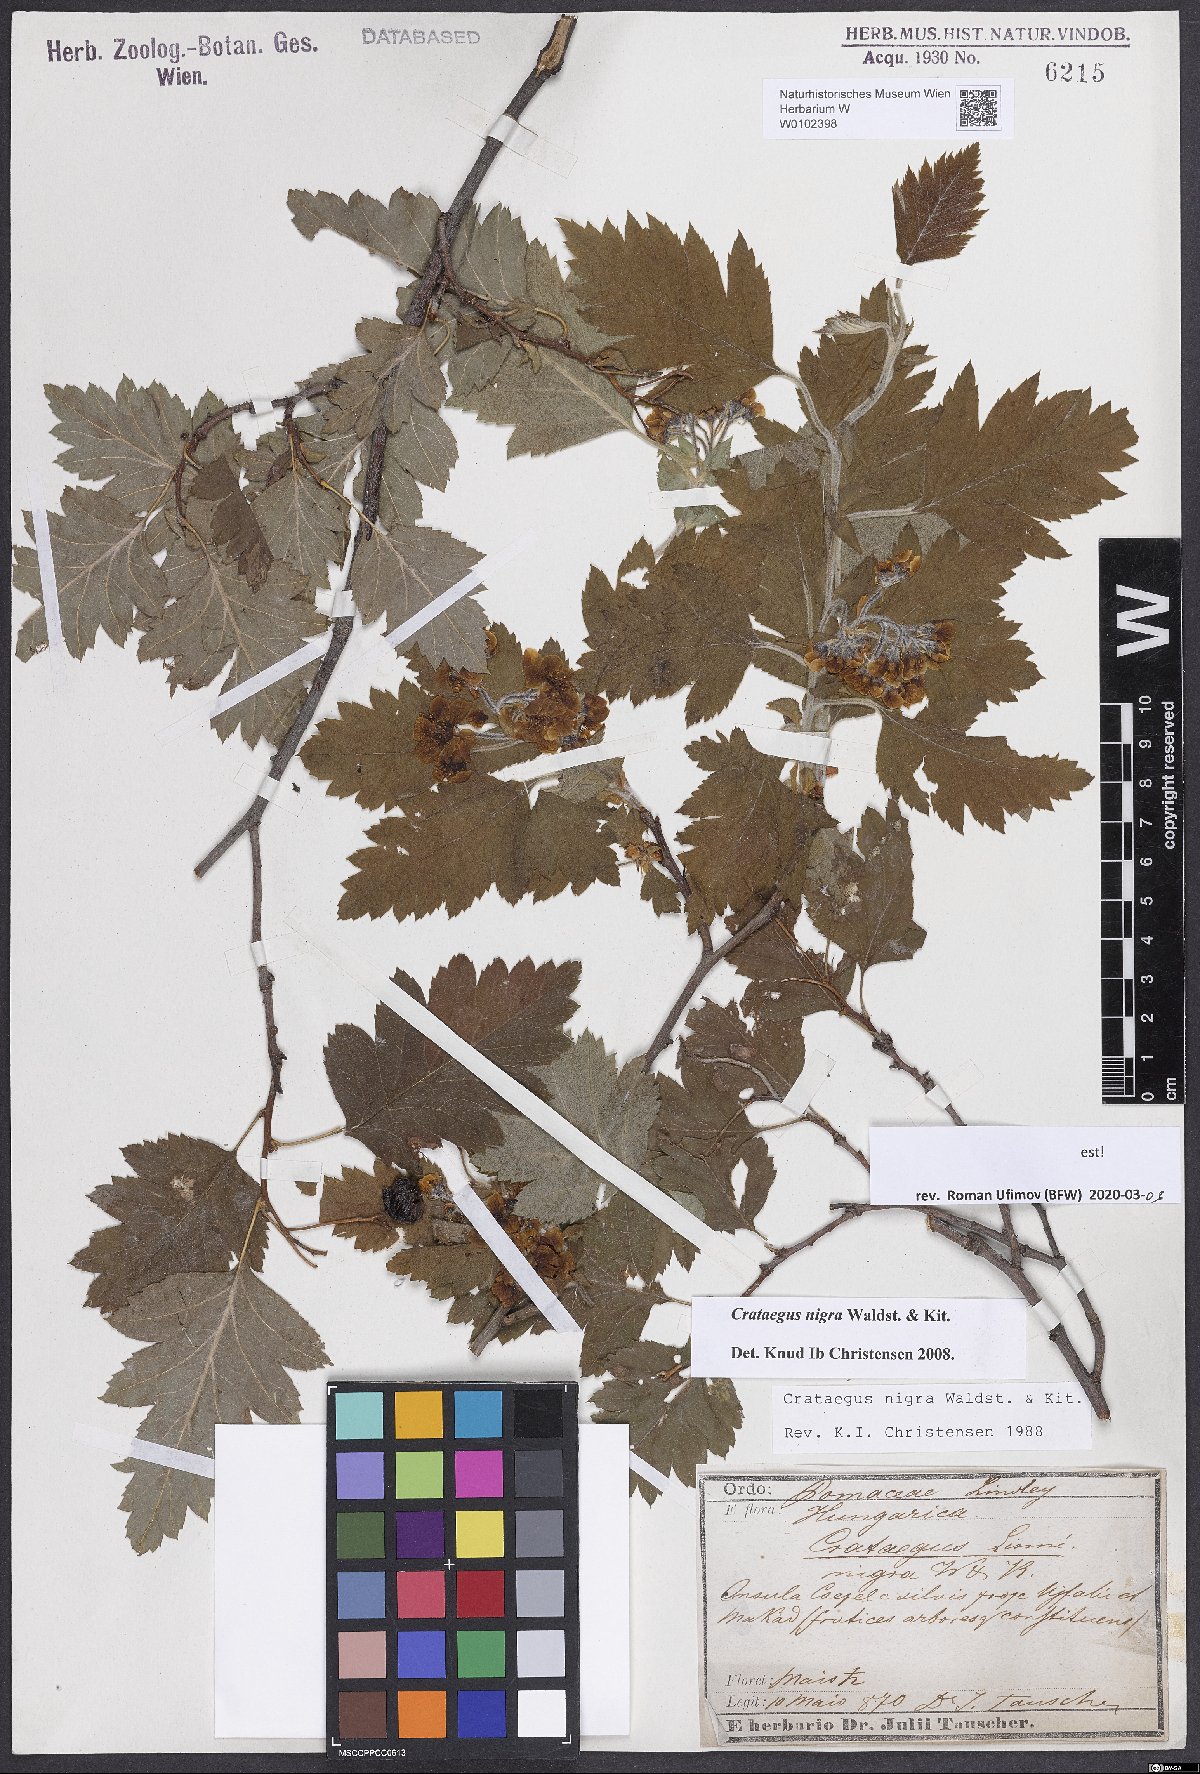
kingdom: Plantae
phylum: Tracheophyta
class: Magnoliopsida
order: Rosales
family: Rosaceae
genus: Crataegus
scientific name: Crataegus nigra
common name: Hungarian thorn
